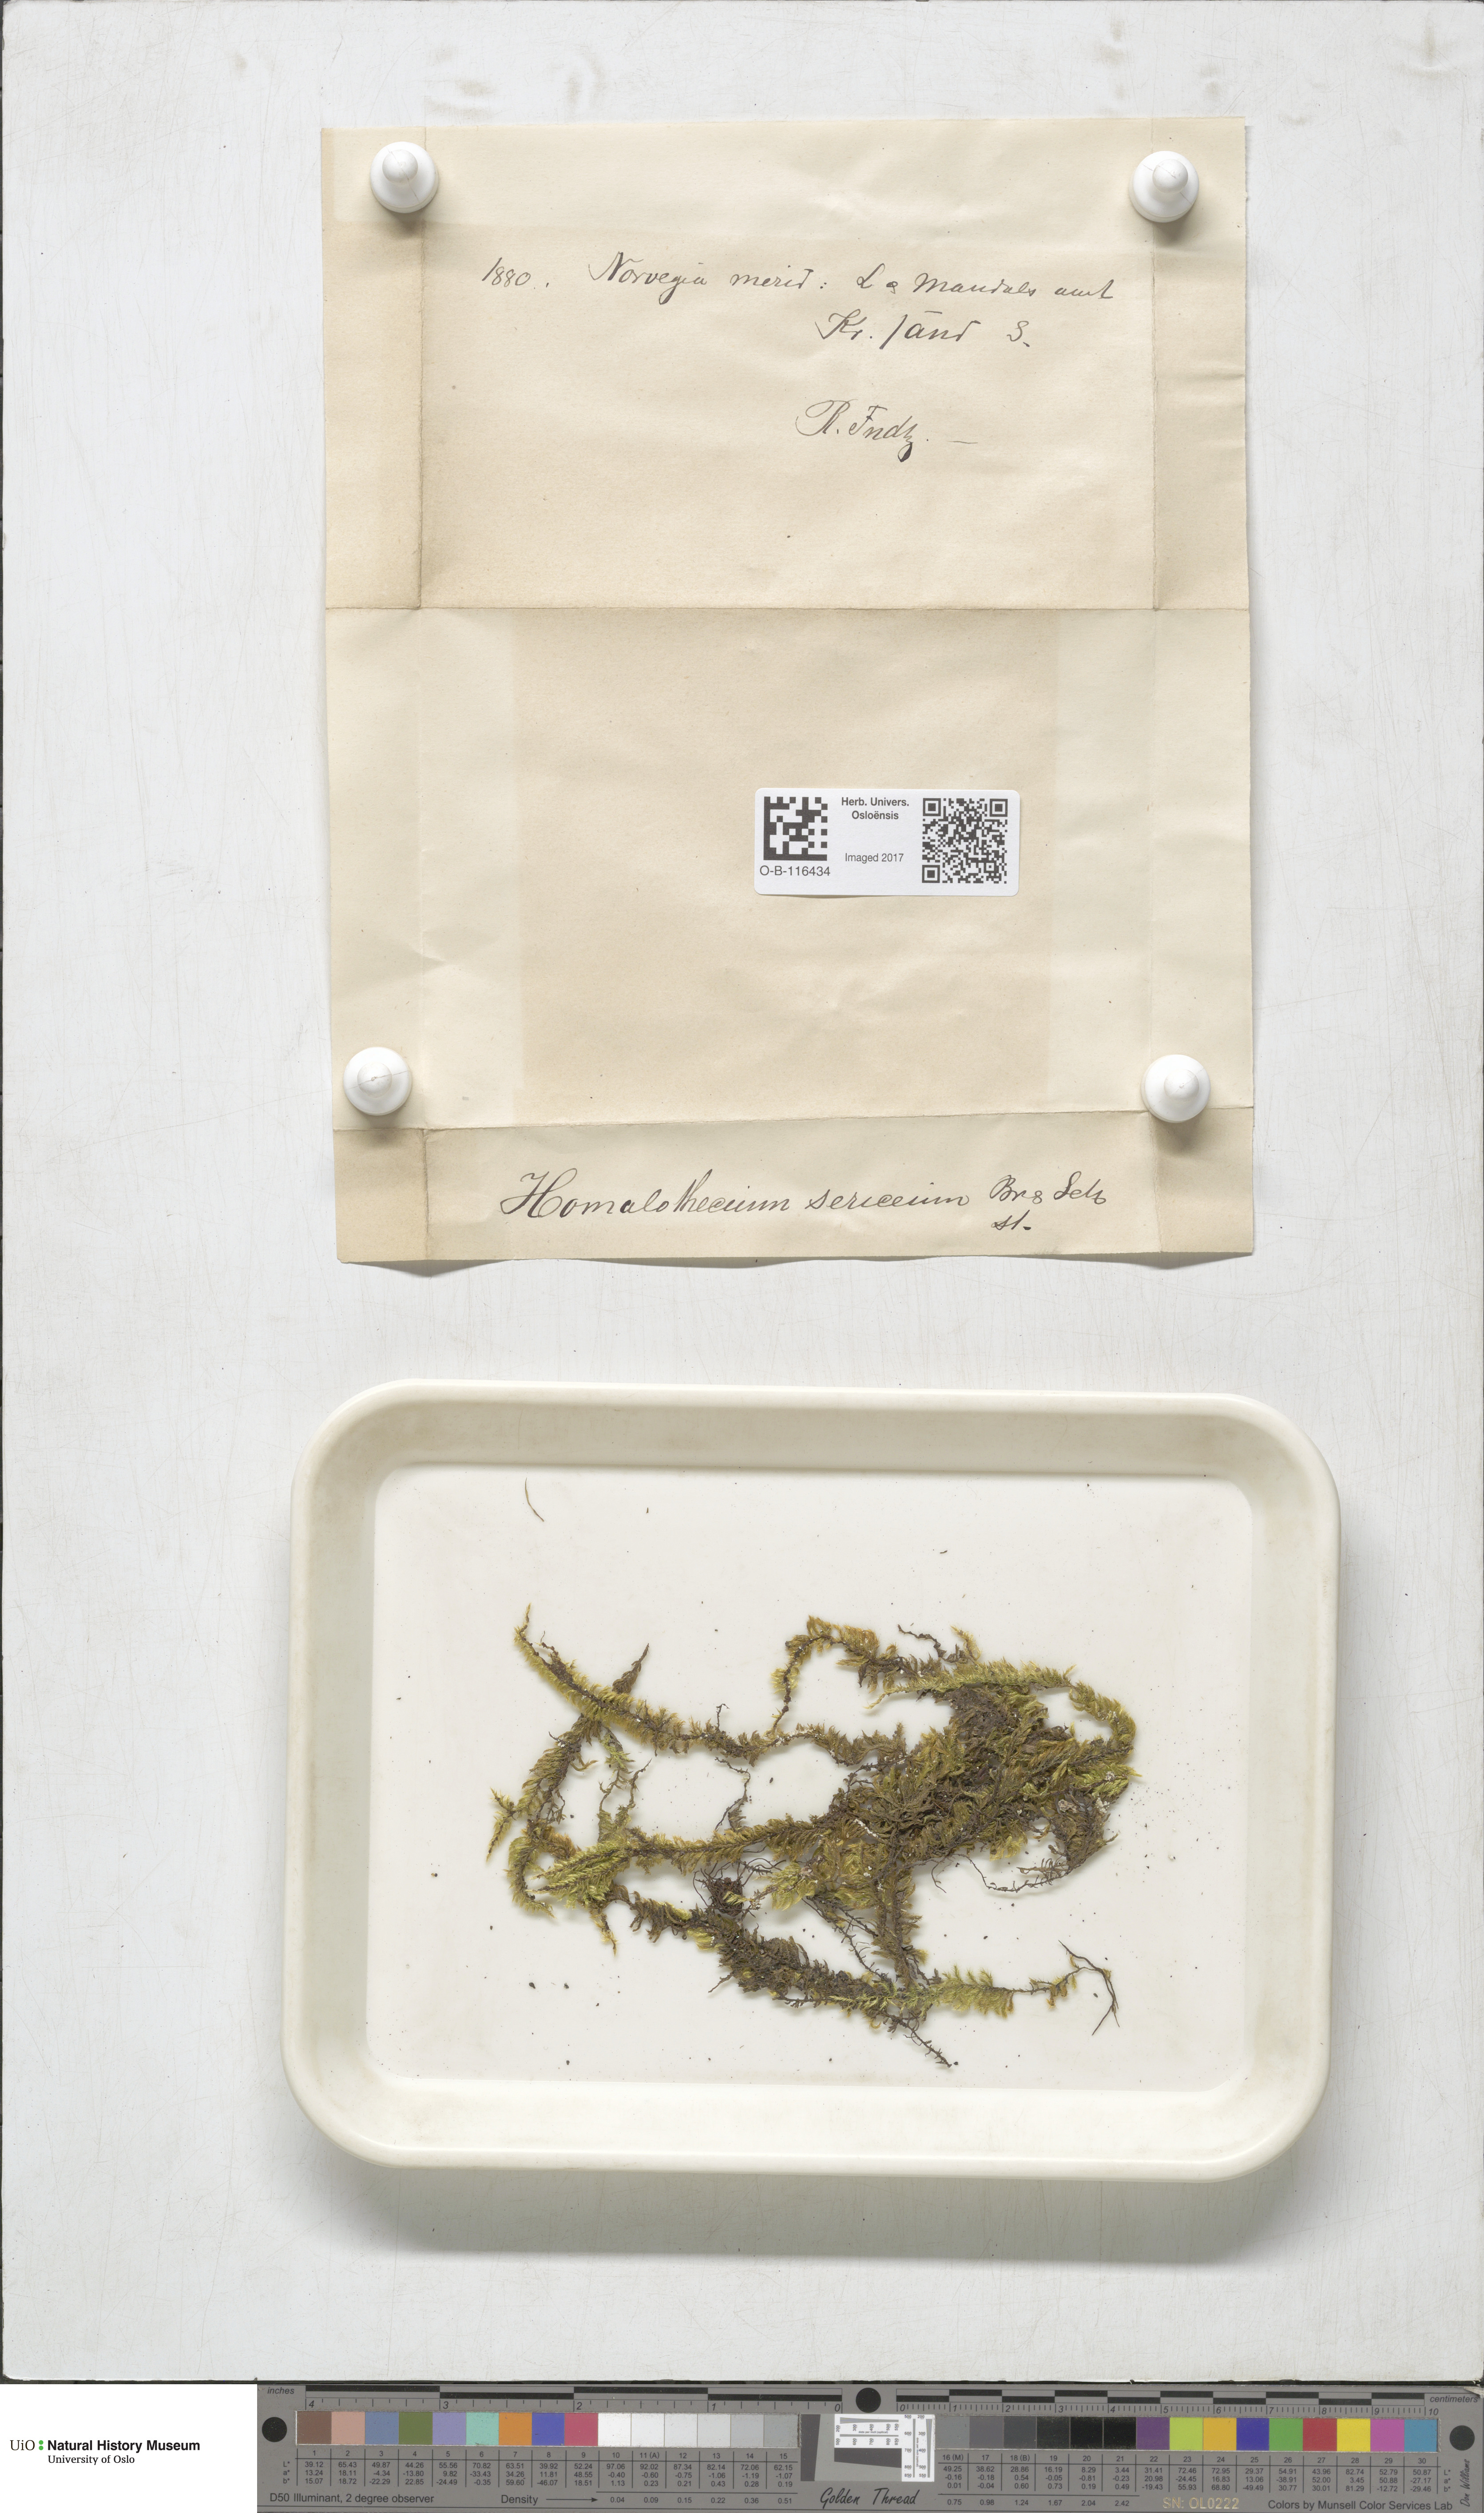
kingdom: Plantae
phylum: Bryophyta
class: Bryopsida
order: Hypnales
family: Brachytheciaceae
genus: Homalothecium
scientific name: Homalothecium sericeum
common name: Silky wall feather-moss
